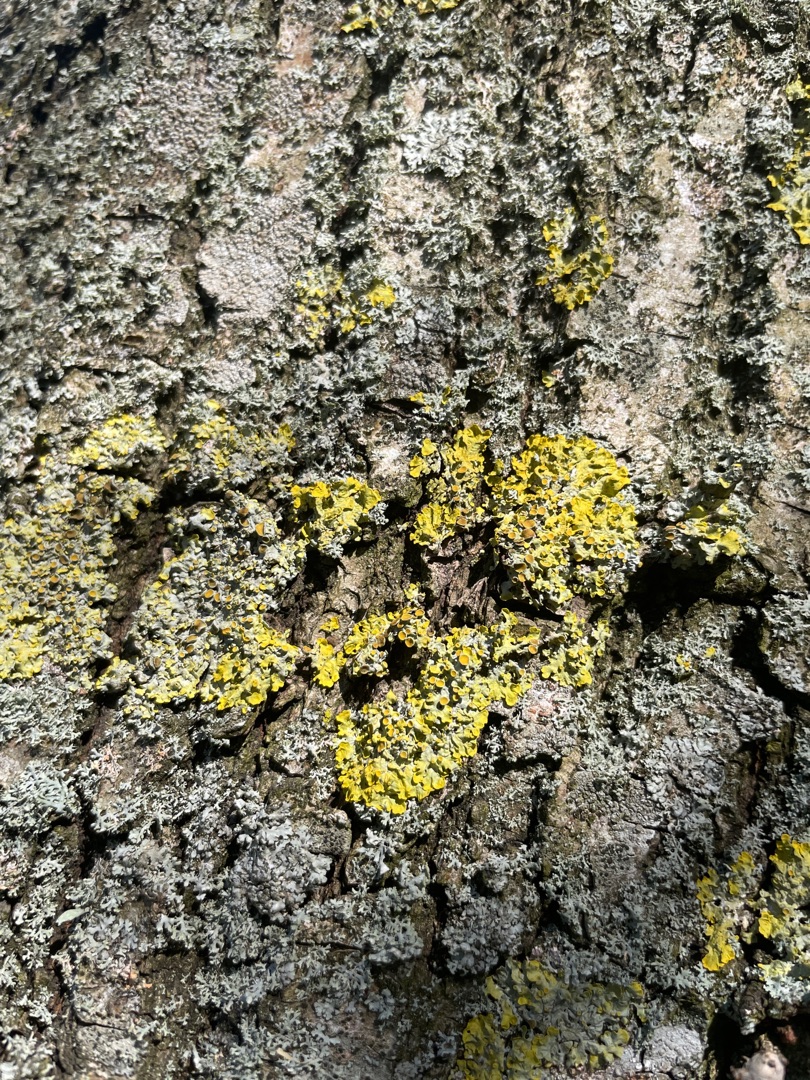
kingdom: Fungi
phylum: Ascomycota
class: Lecanoromycetes
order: Teloschistales
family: Teloschistaceae
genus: Xanthoria
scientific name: Xanthoria parietina
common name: Almindelig væggelav
